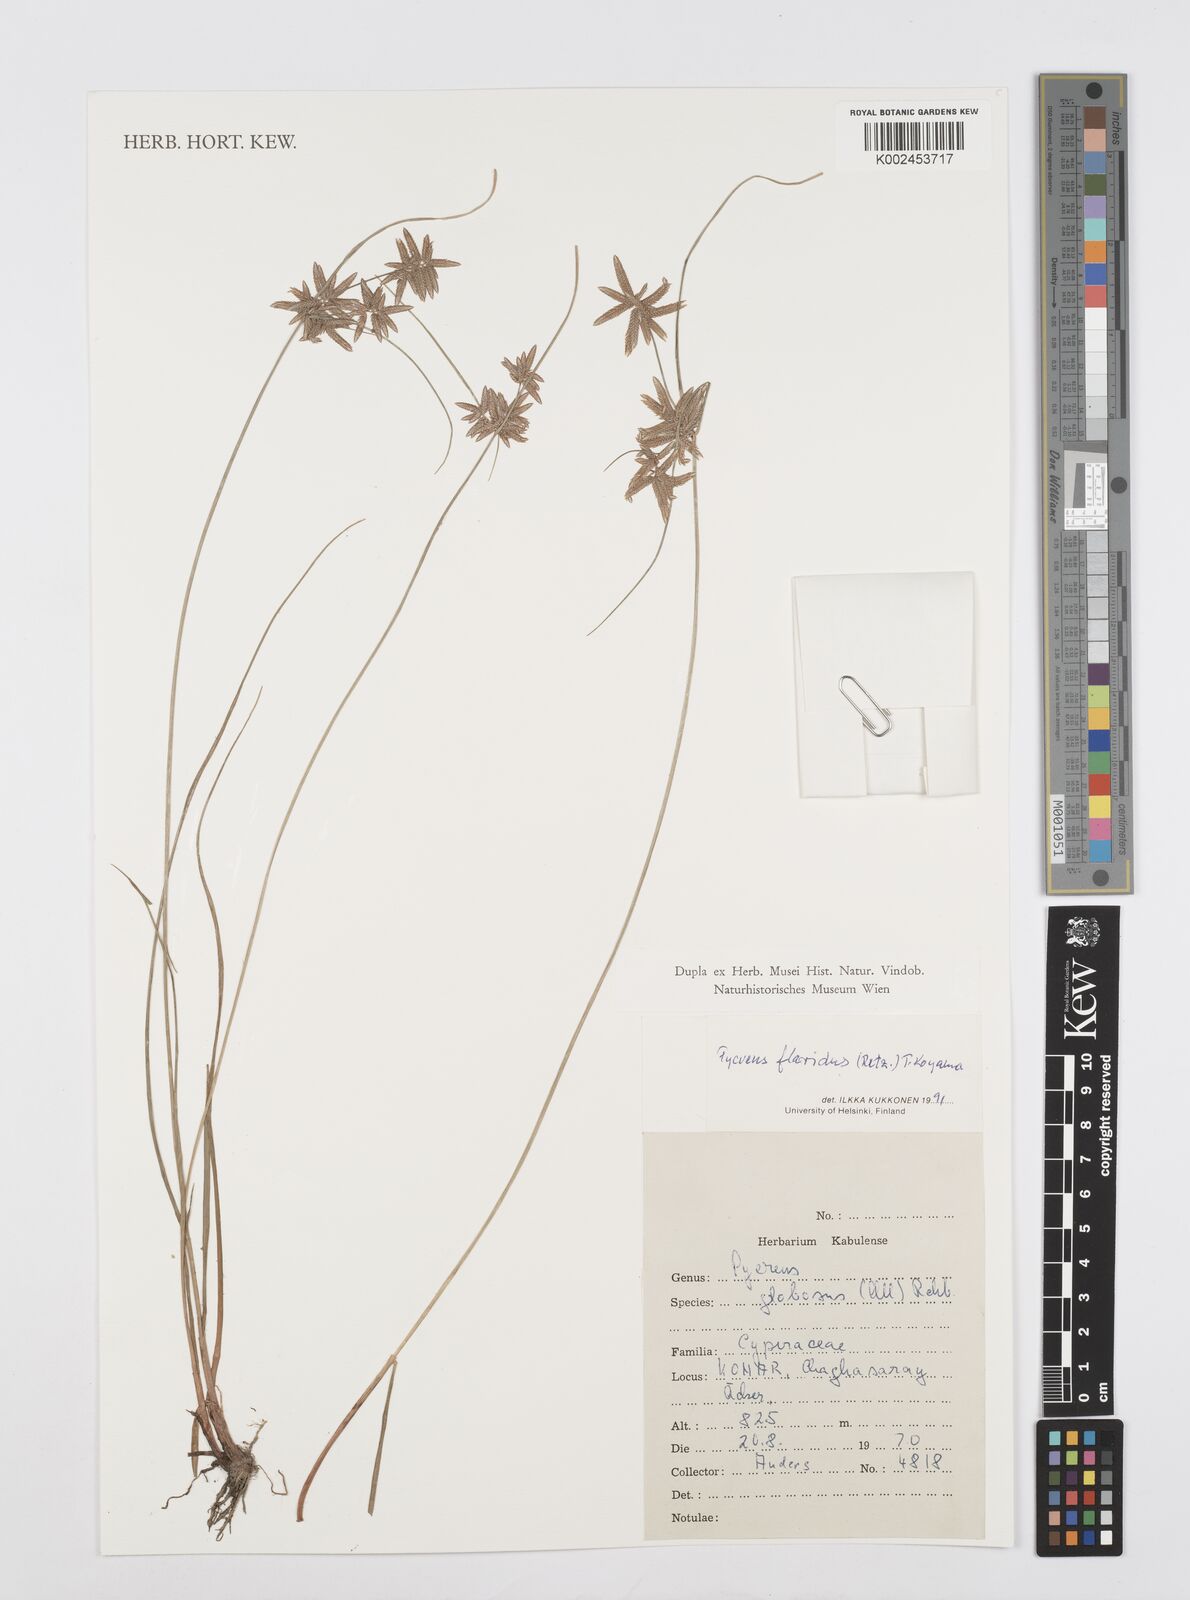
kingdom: Plantae
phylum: Tracheophyta
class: Liliopsida
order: Poales
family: Cyperaceae
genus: Cyperus
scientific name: Cyperus flavidus
